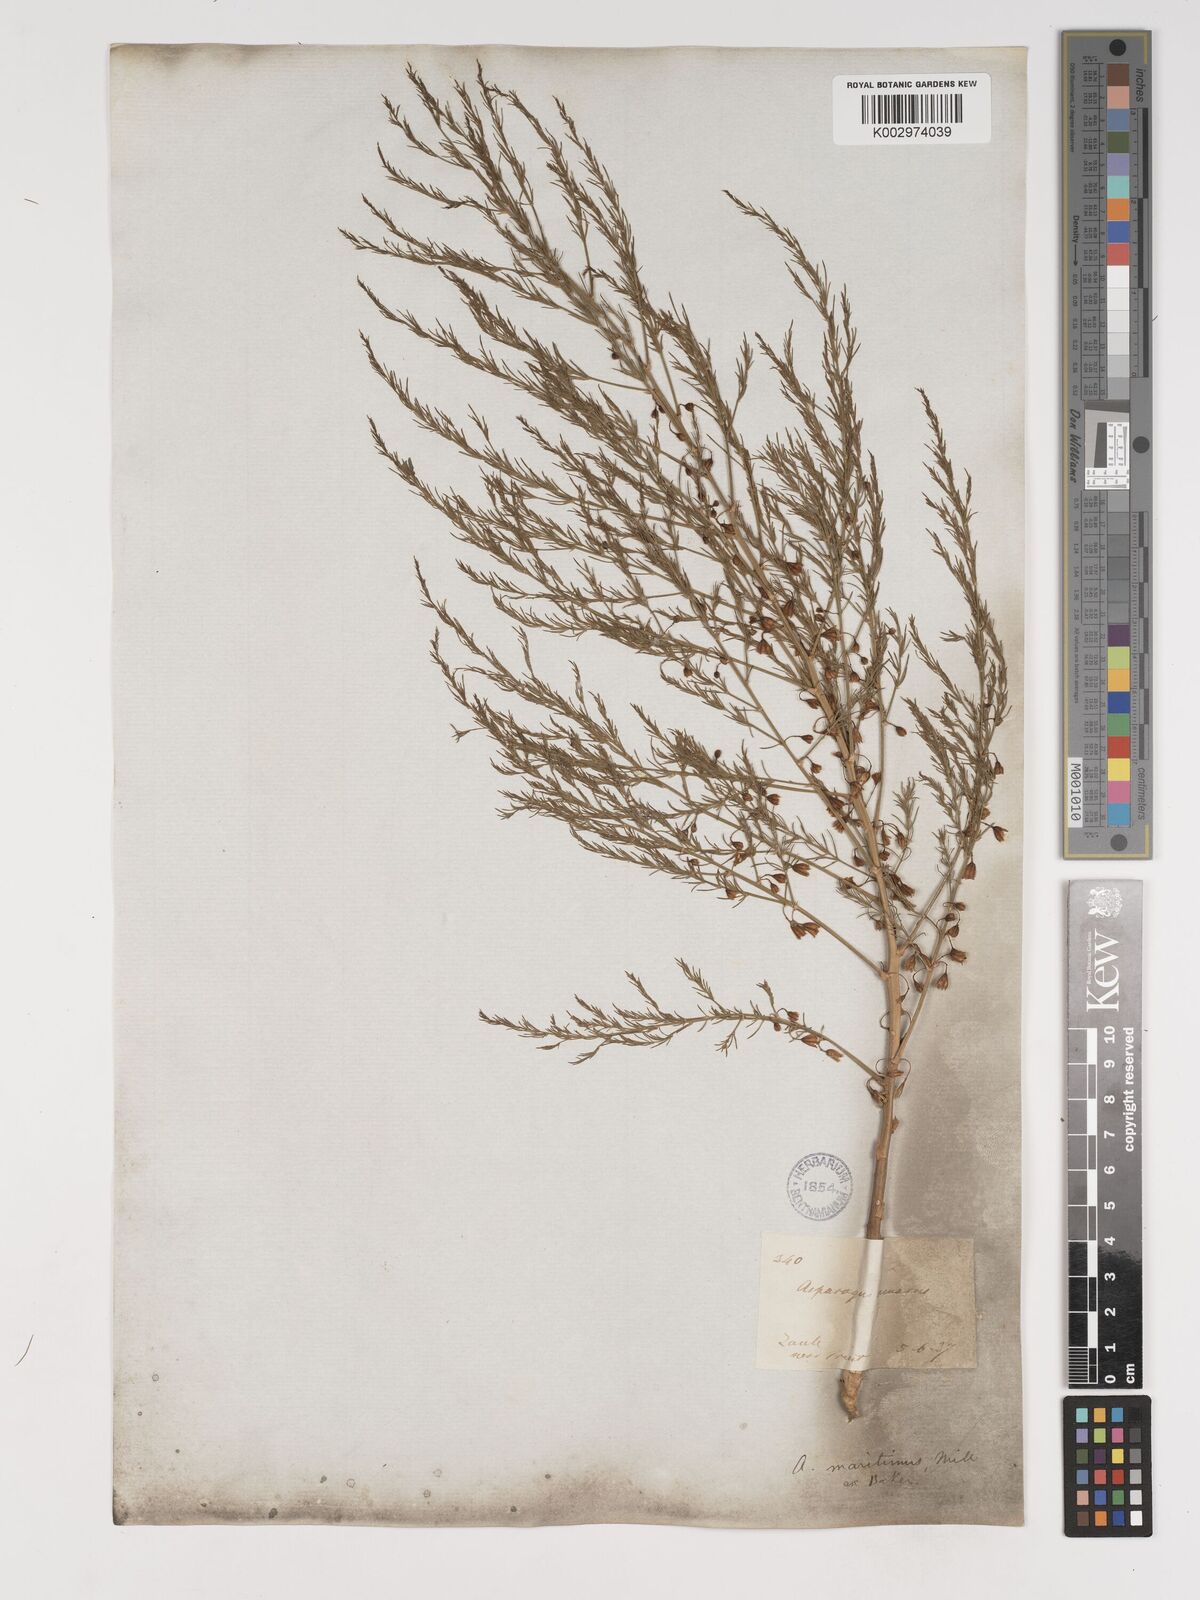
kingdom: Plantae
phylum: Tracheophyta
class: Liliopsida
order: Asparagales
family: Asparagaceae
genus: Asparagus
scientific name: Asparagus maritimus
